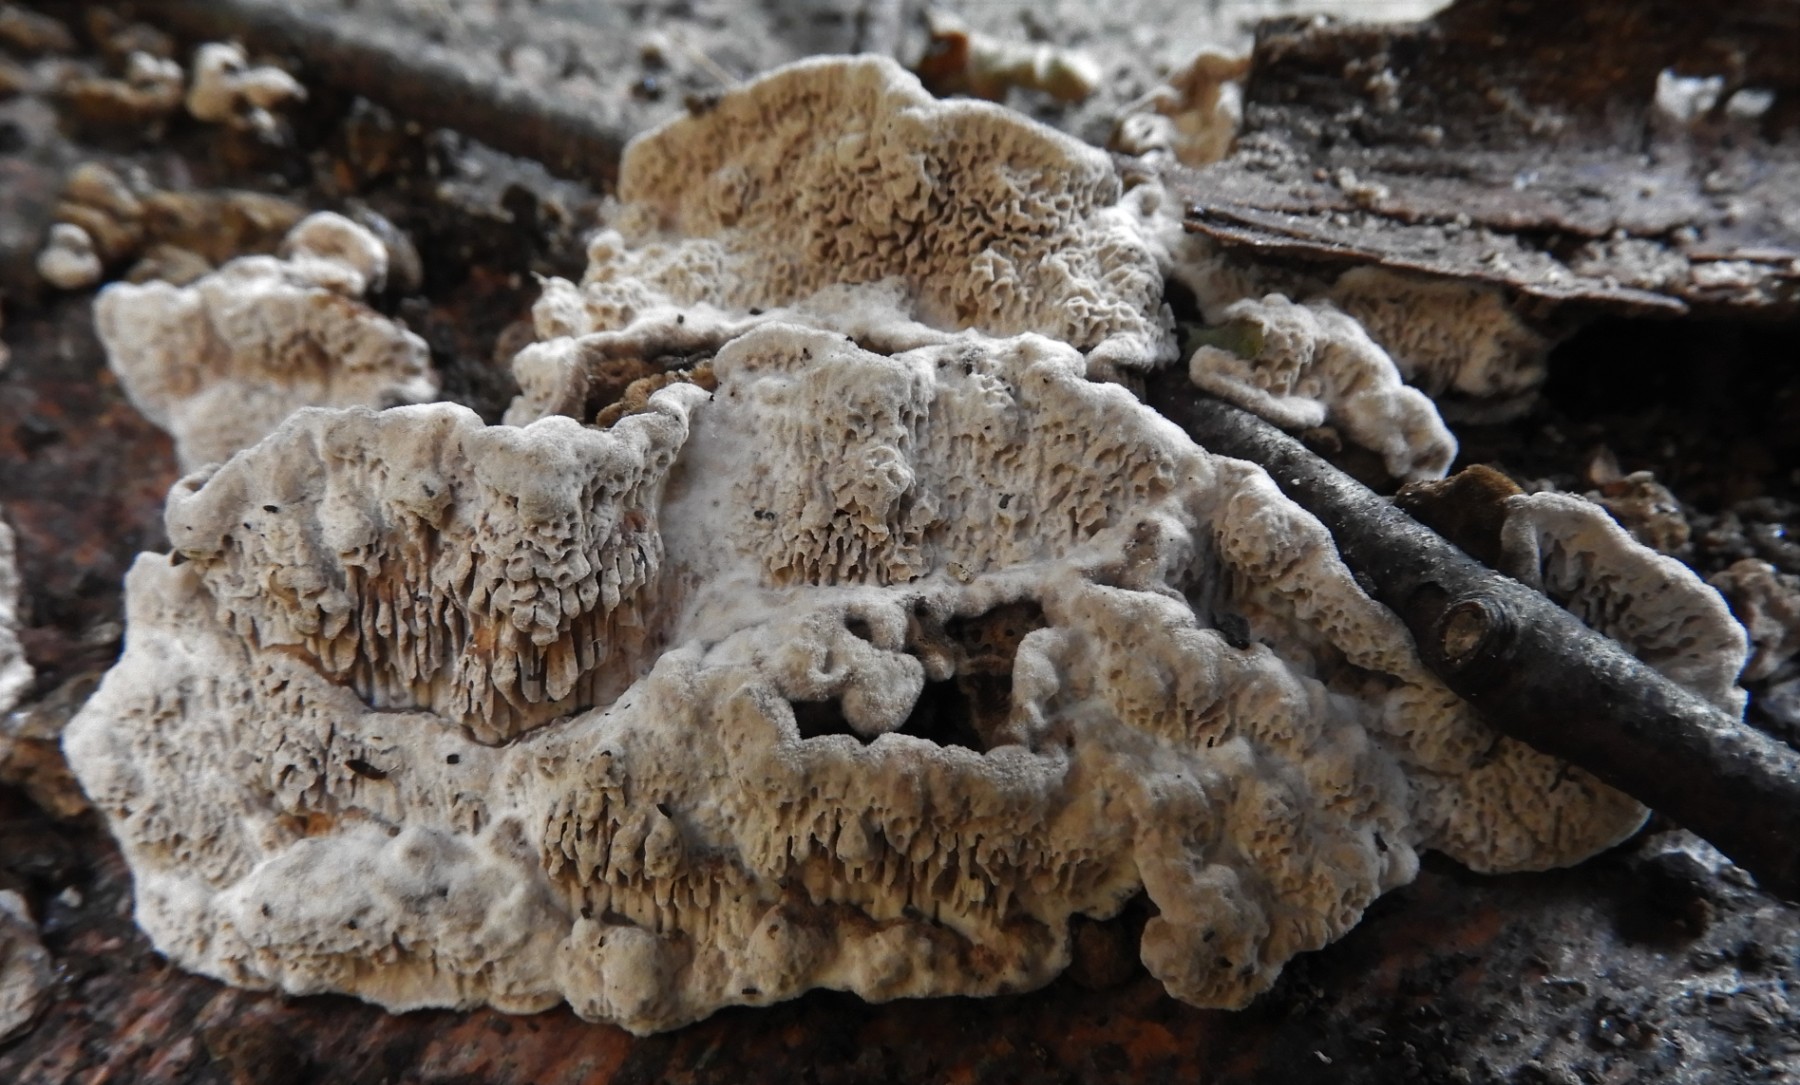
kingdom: Fungi
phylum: Basidiomycota
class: Agaricomycetes
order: Polyporales
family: Polyporaceae
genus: Podofomes
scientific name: Podofomes mollis
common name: blød begporesvamp
